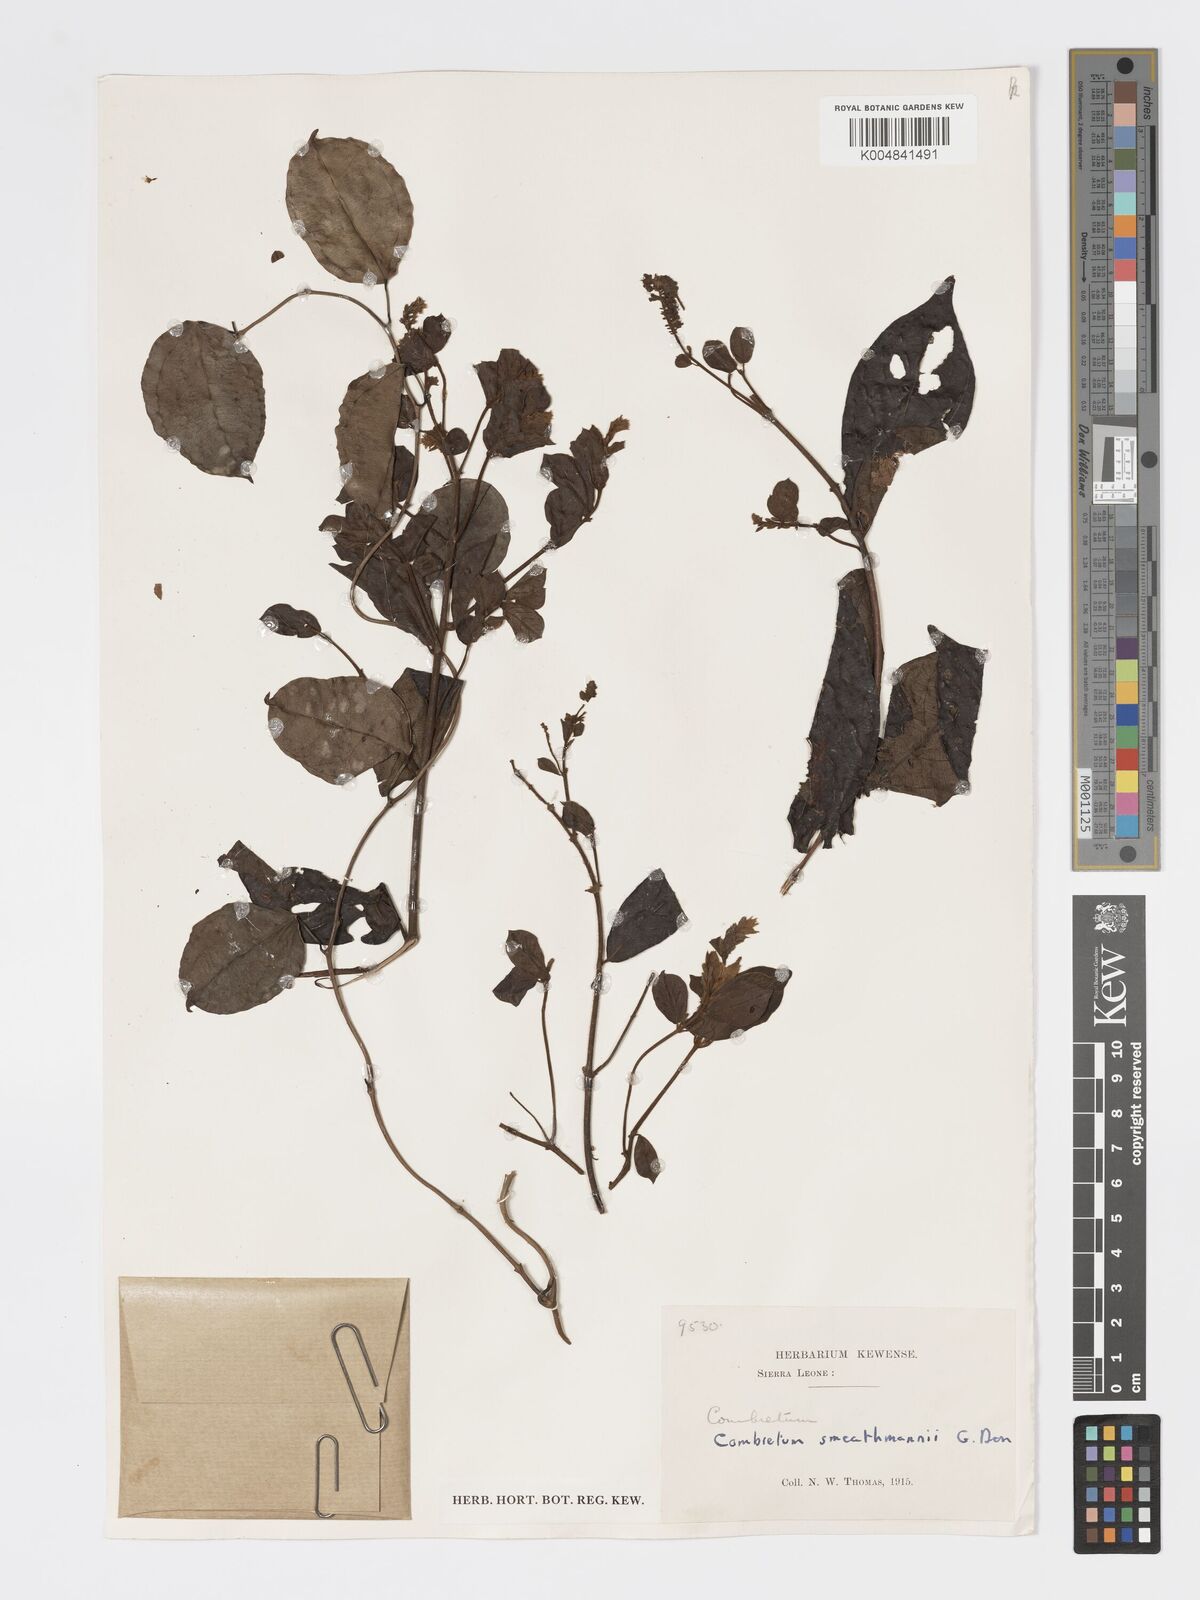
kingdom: Plantae
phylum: Tracheophyta
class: Magnoliopsida
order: Myrtales
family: Combretaceae
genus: Combretum
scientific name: Combretum mucronatum
